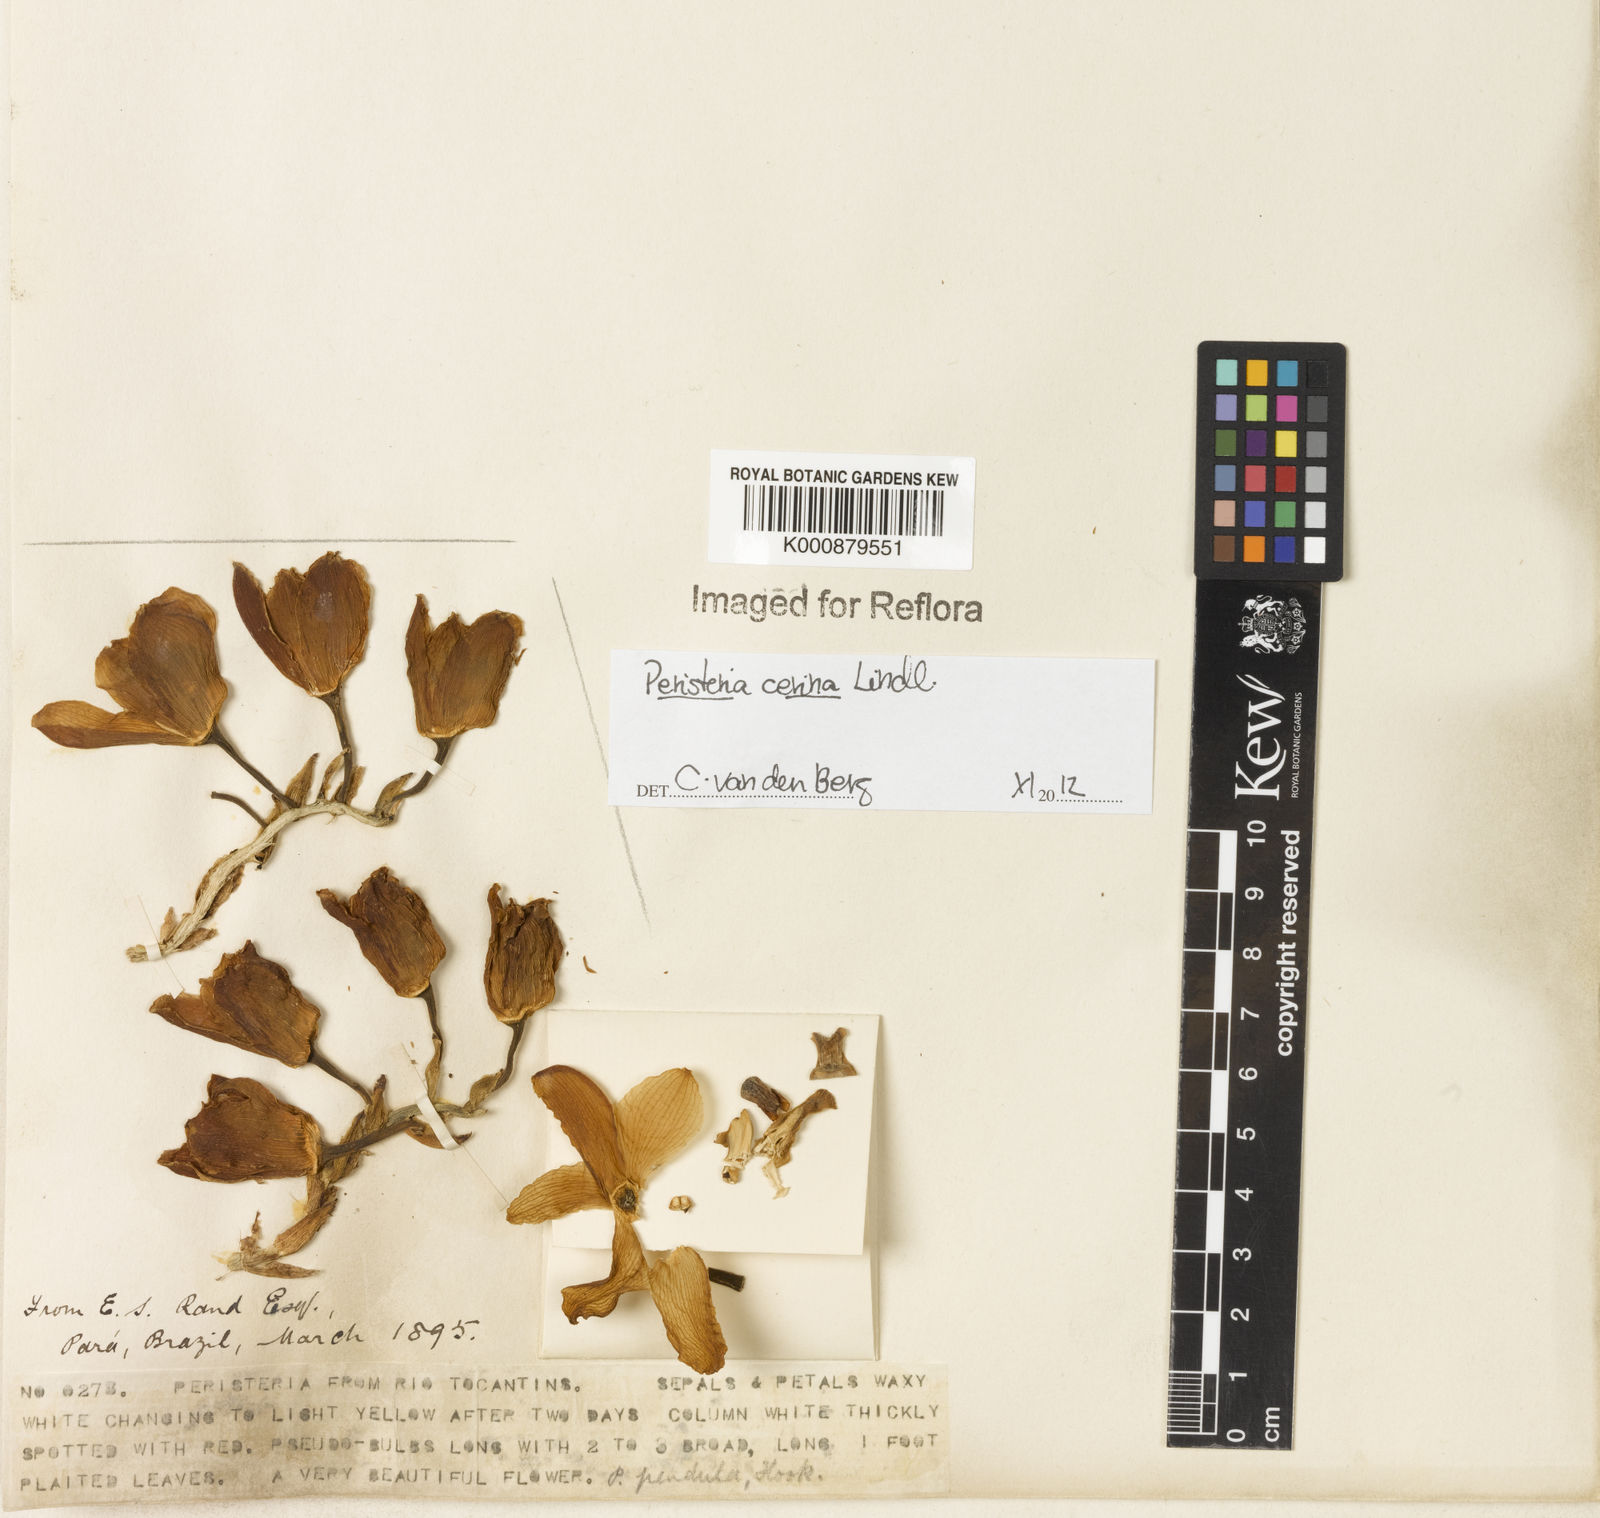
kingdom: Plantae
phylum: Tracheophyta
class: Liliopsida
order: Asparagales
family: Orchidaceae
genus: Peristeria
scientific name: Peristeria cerina
